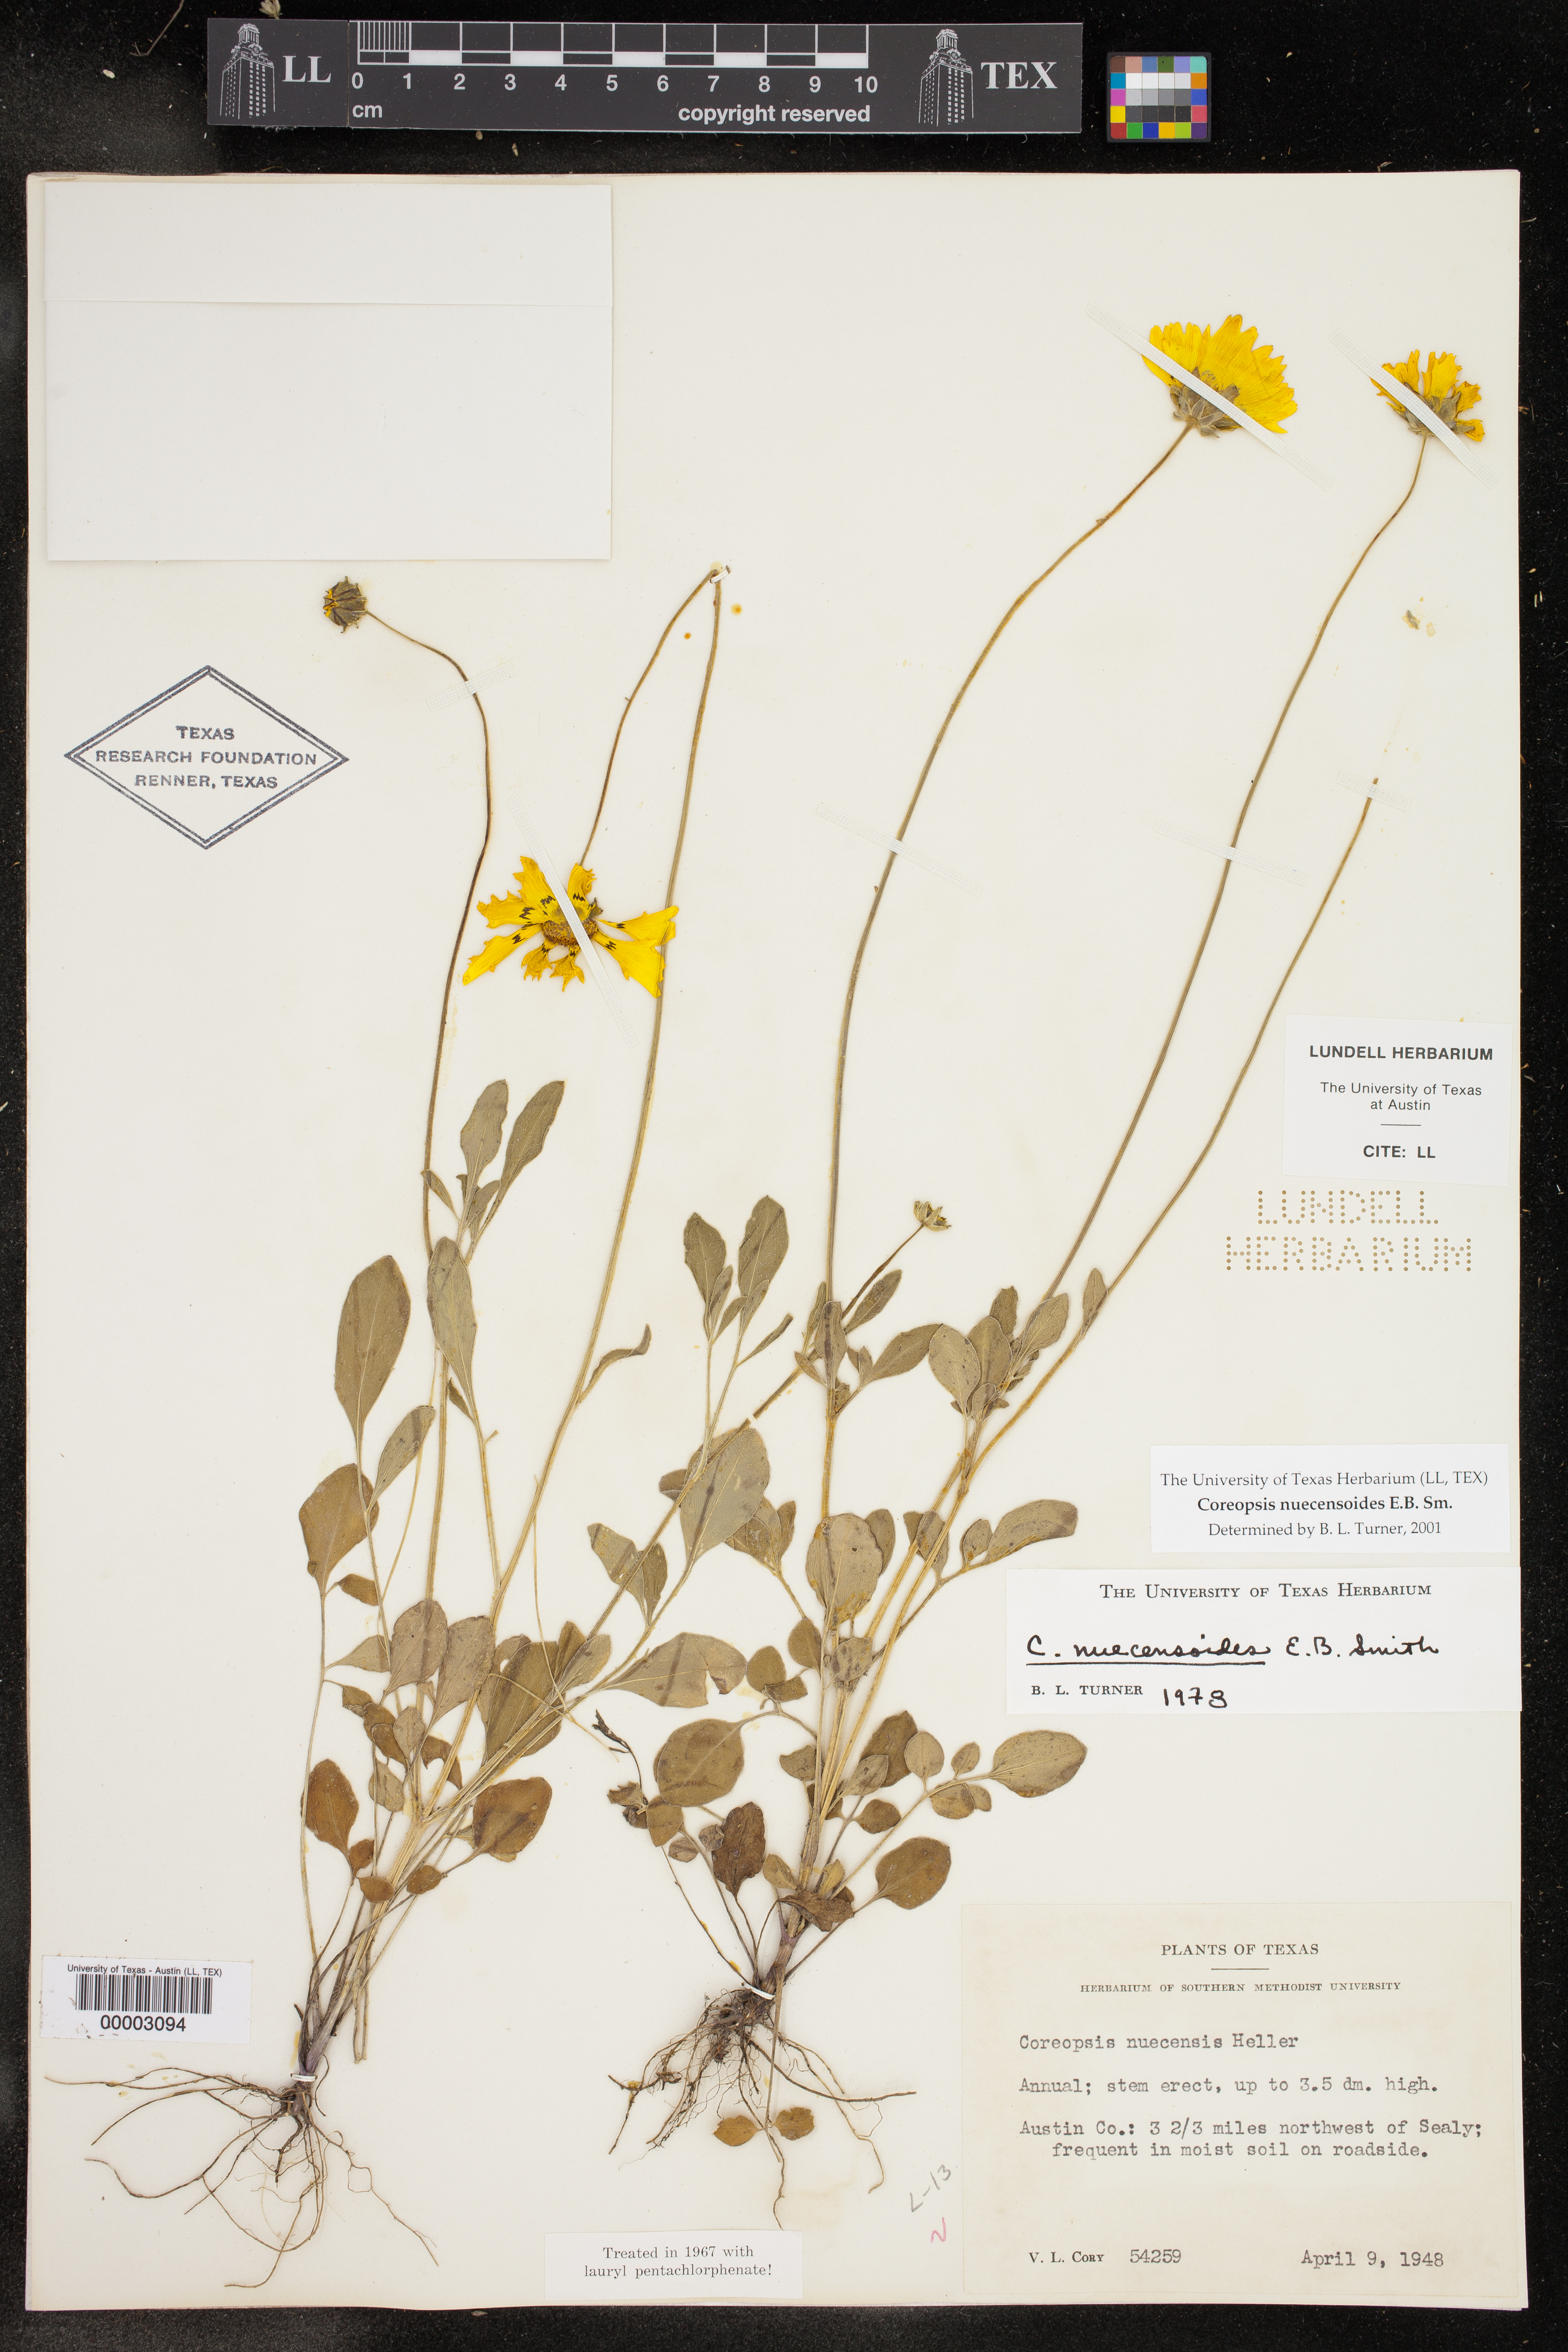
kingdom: Plantae
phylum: Tracheophyta
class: Magnoliopsida
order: Asterales
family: Asteraceae
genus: Coreopsis
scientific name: Coreopsis nuecensis
